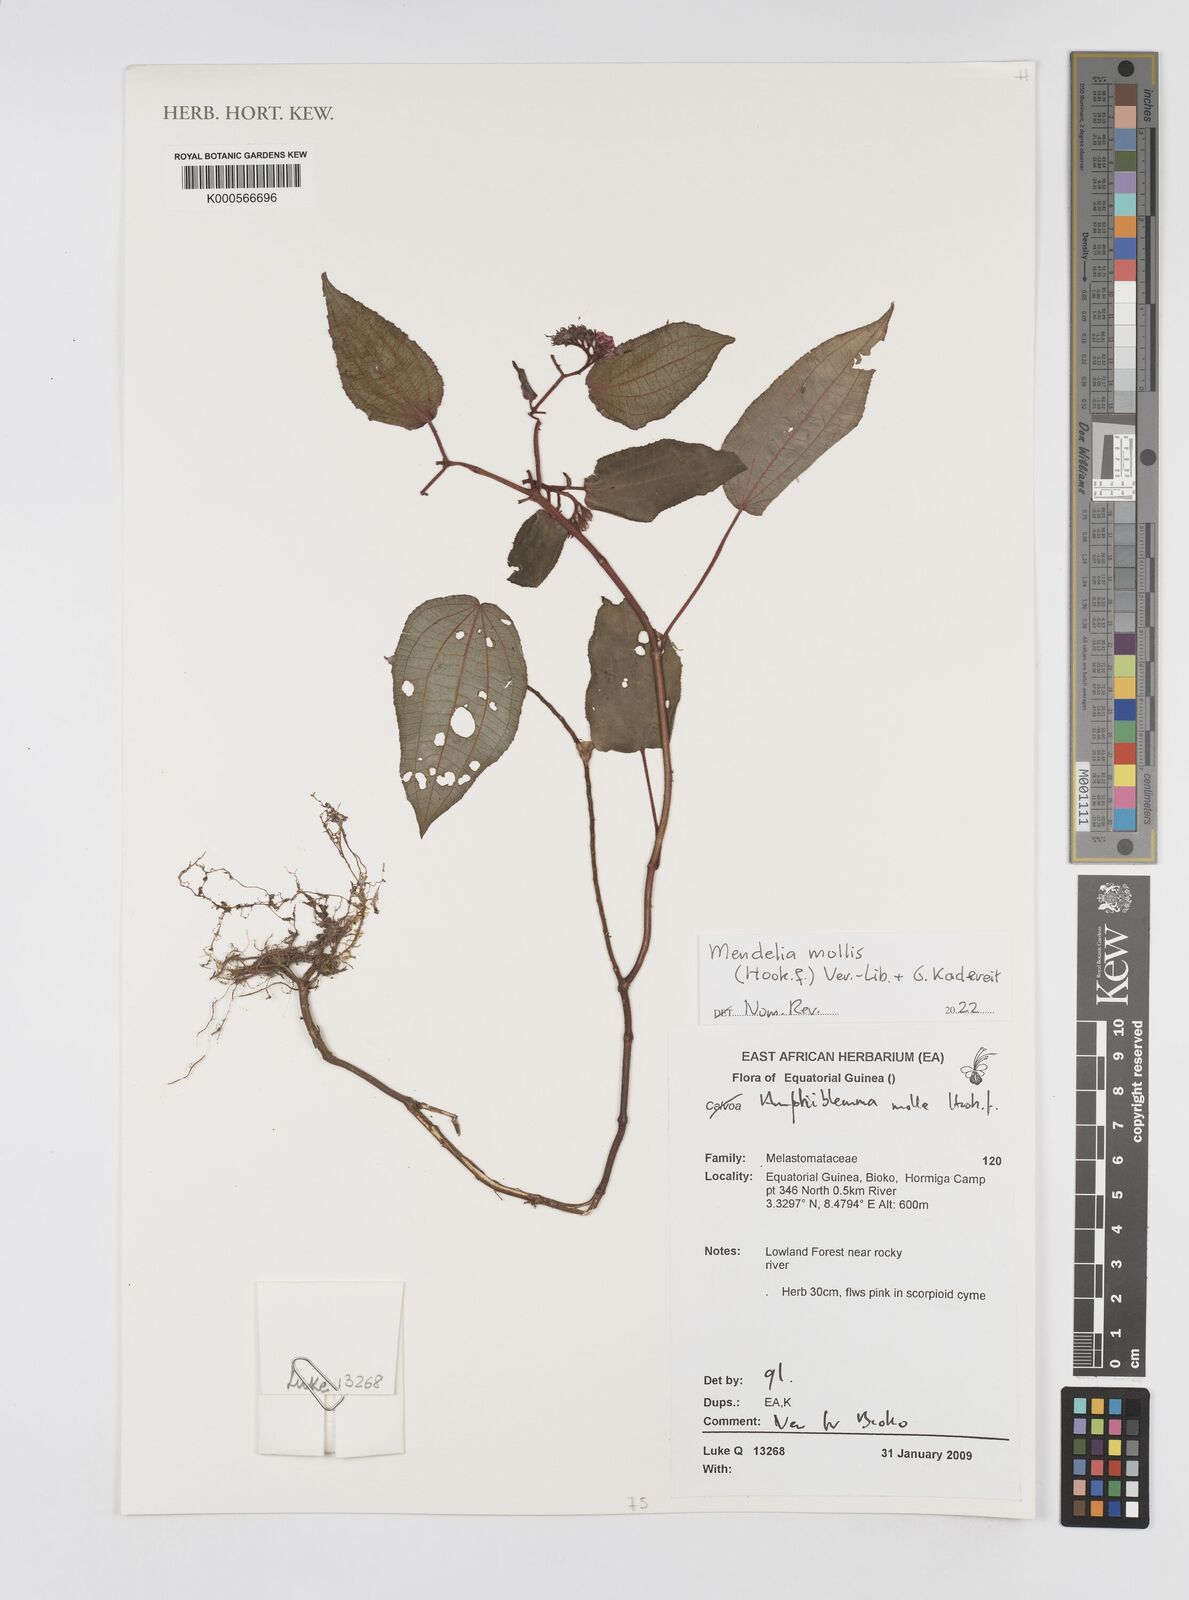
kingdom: Plantae
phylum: Tracheophyta
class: Magnoliopsida
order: Myrtales
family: Melastomataceae
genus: Amphiblemma
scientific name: Amphiblemma molle
